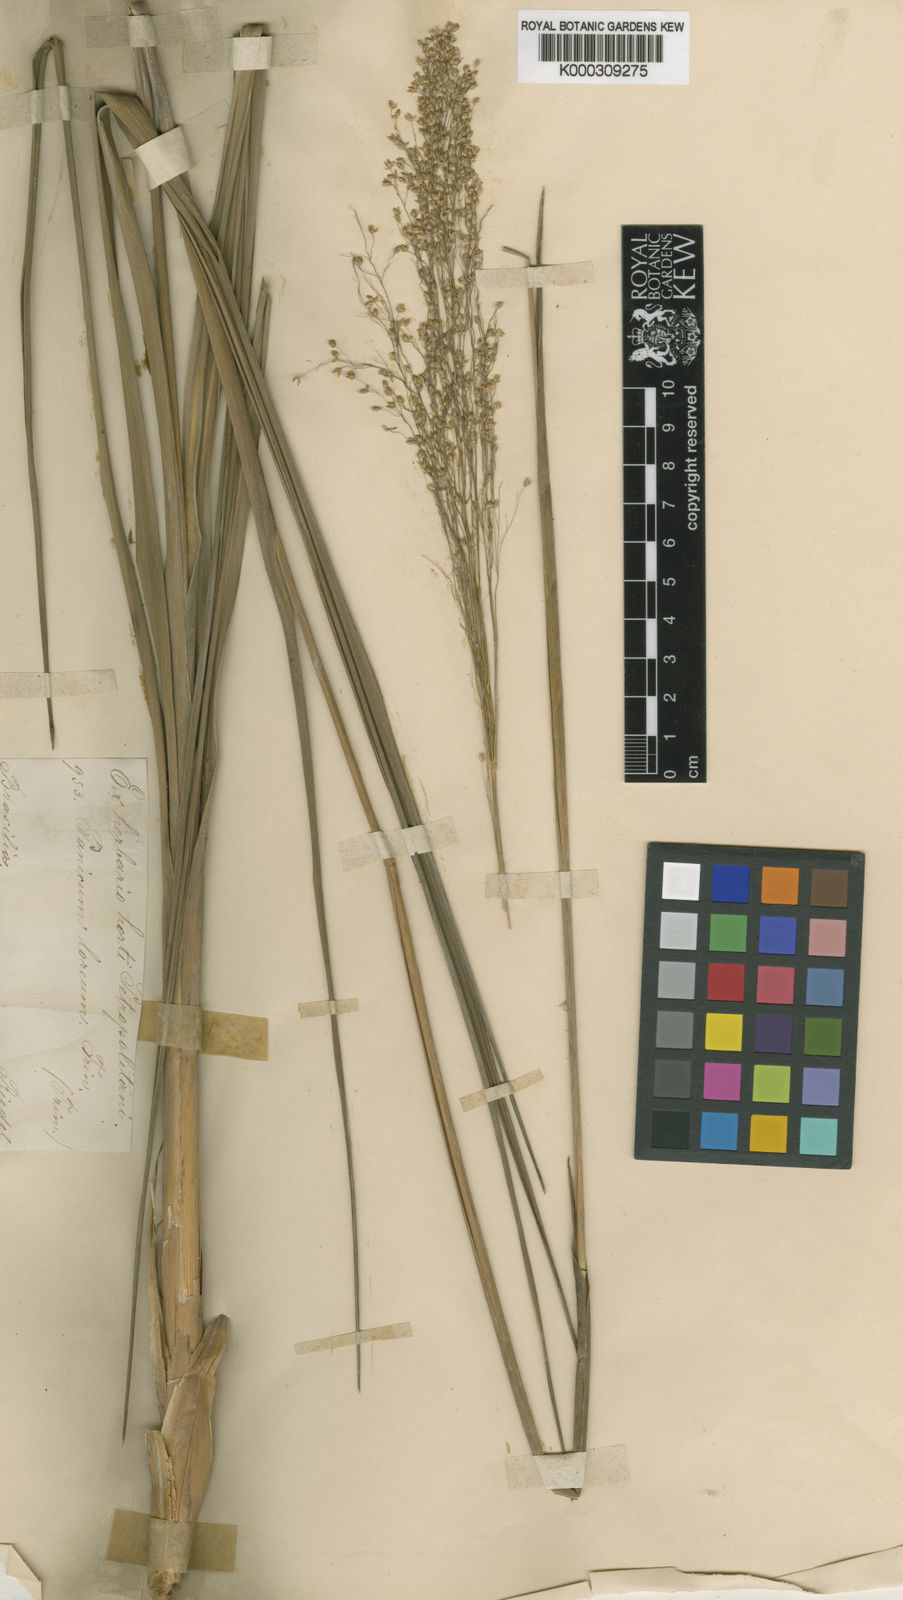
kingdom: Plantae
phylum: Tracheophyta
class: Liliopsida
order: Poales
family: Poaceae
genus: Apochloa
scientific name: Apochloa lorea
